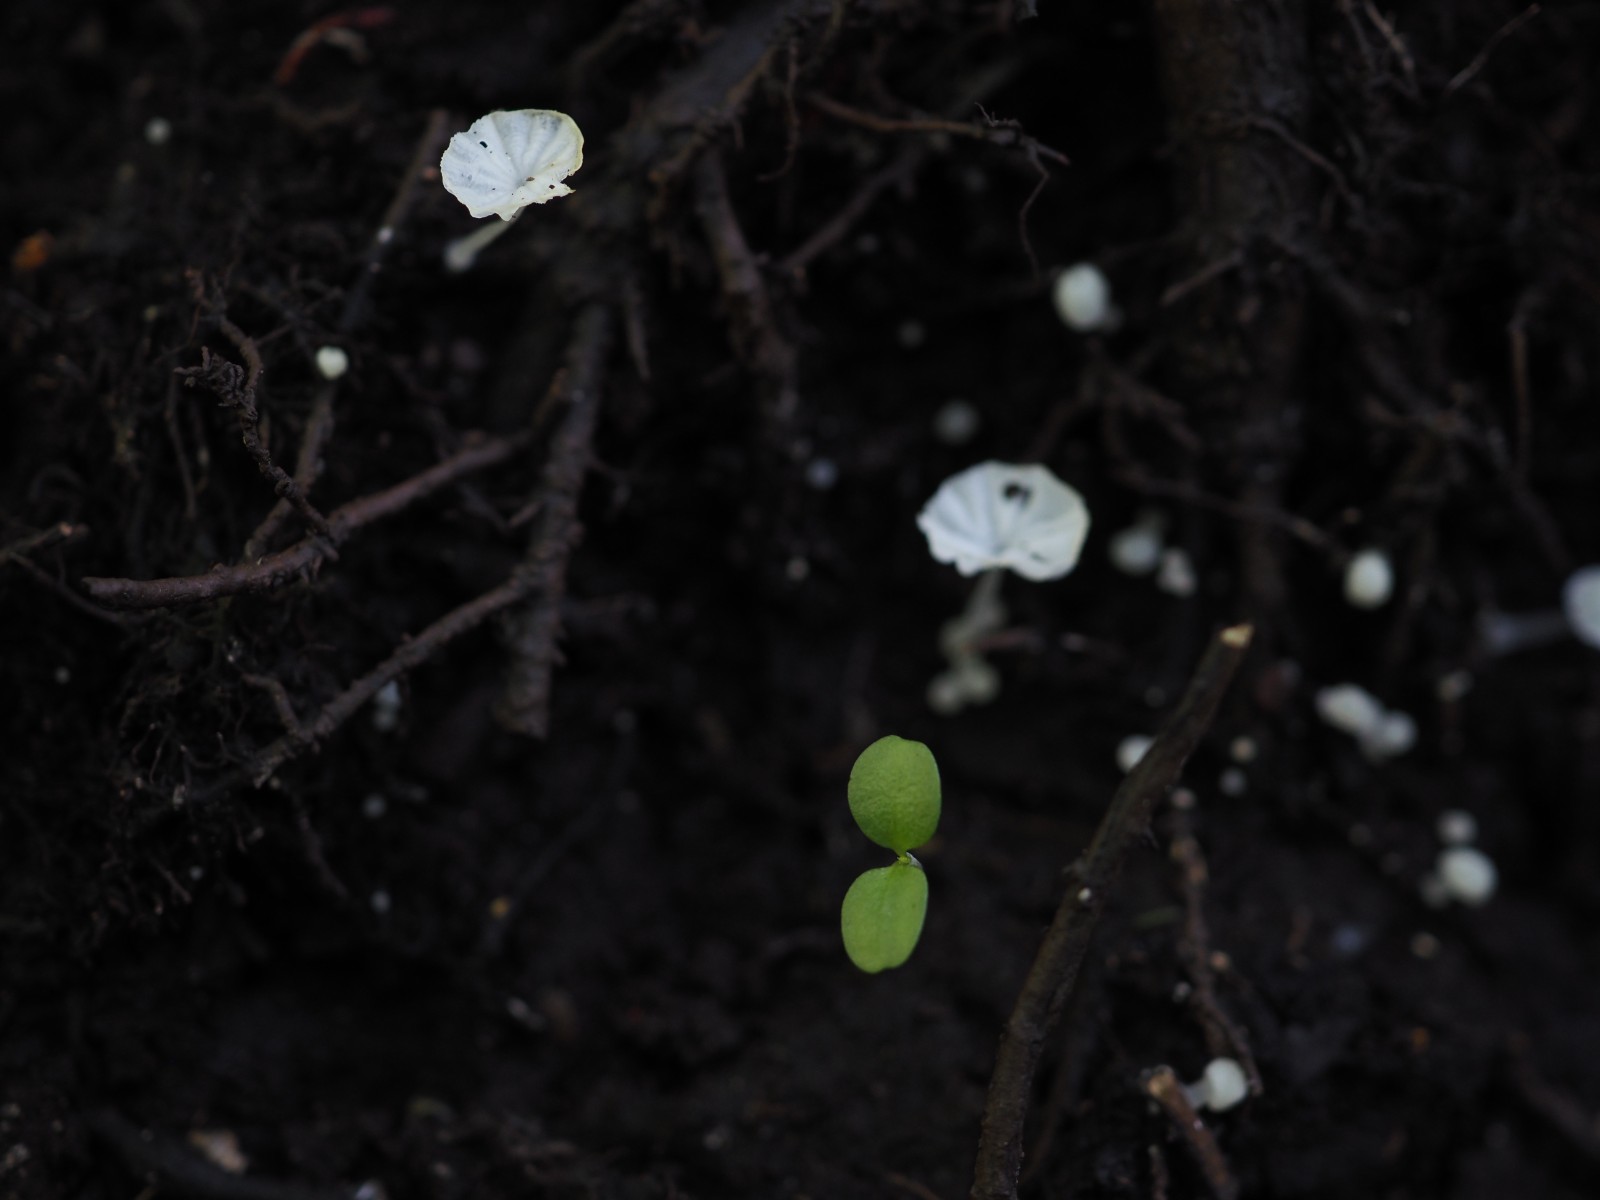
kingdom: Fungi
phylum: Basidiomycota
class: Agaricomycetes
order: Agaricales
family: Tricholomataceae
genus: Delicatula
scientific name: Delicatula integrella
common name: slørhuesvamp
